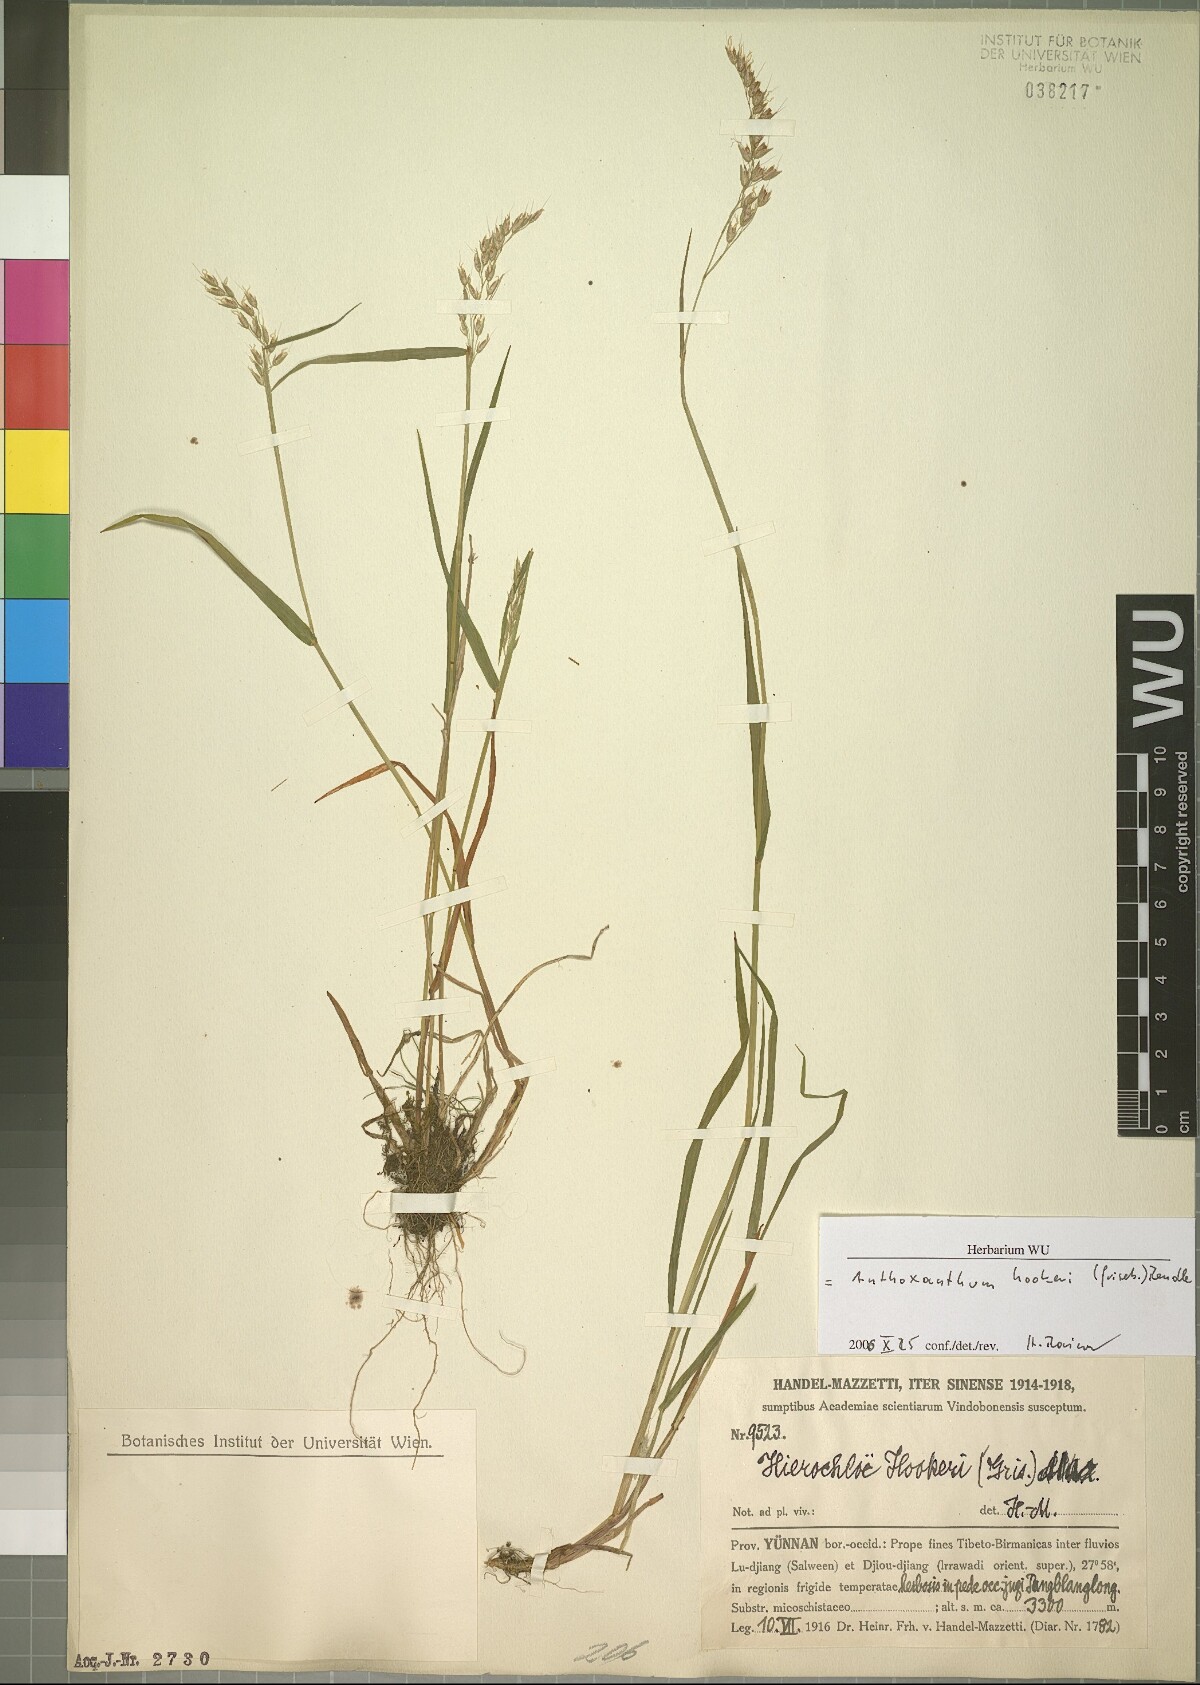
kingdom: Plantae
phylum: Tracheophyta
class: Liliopsida
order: Poales
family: Poaceae
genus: Anthoxanthum
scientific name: Anthoxanthum hookeri
